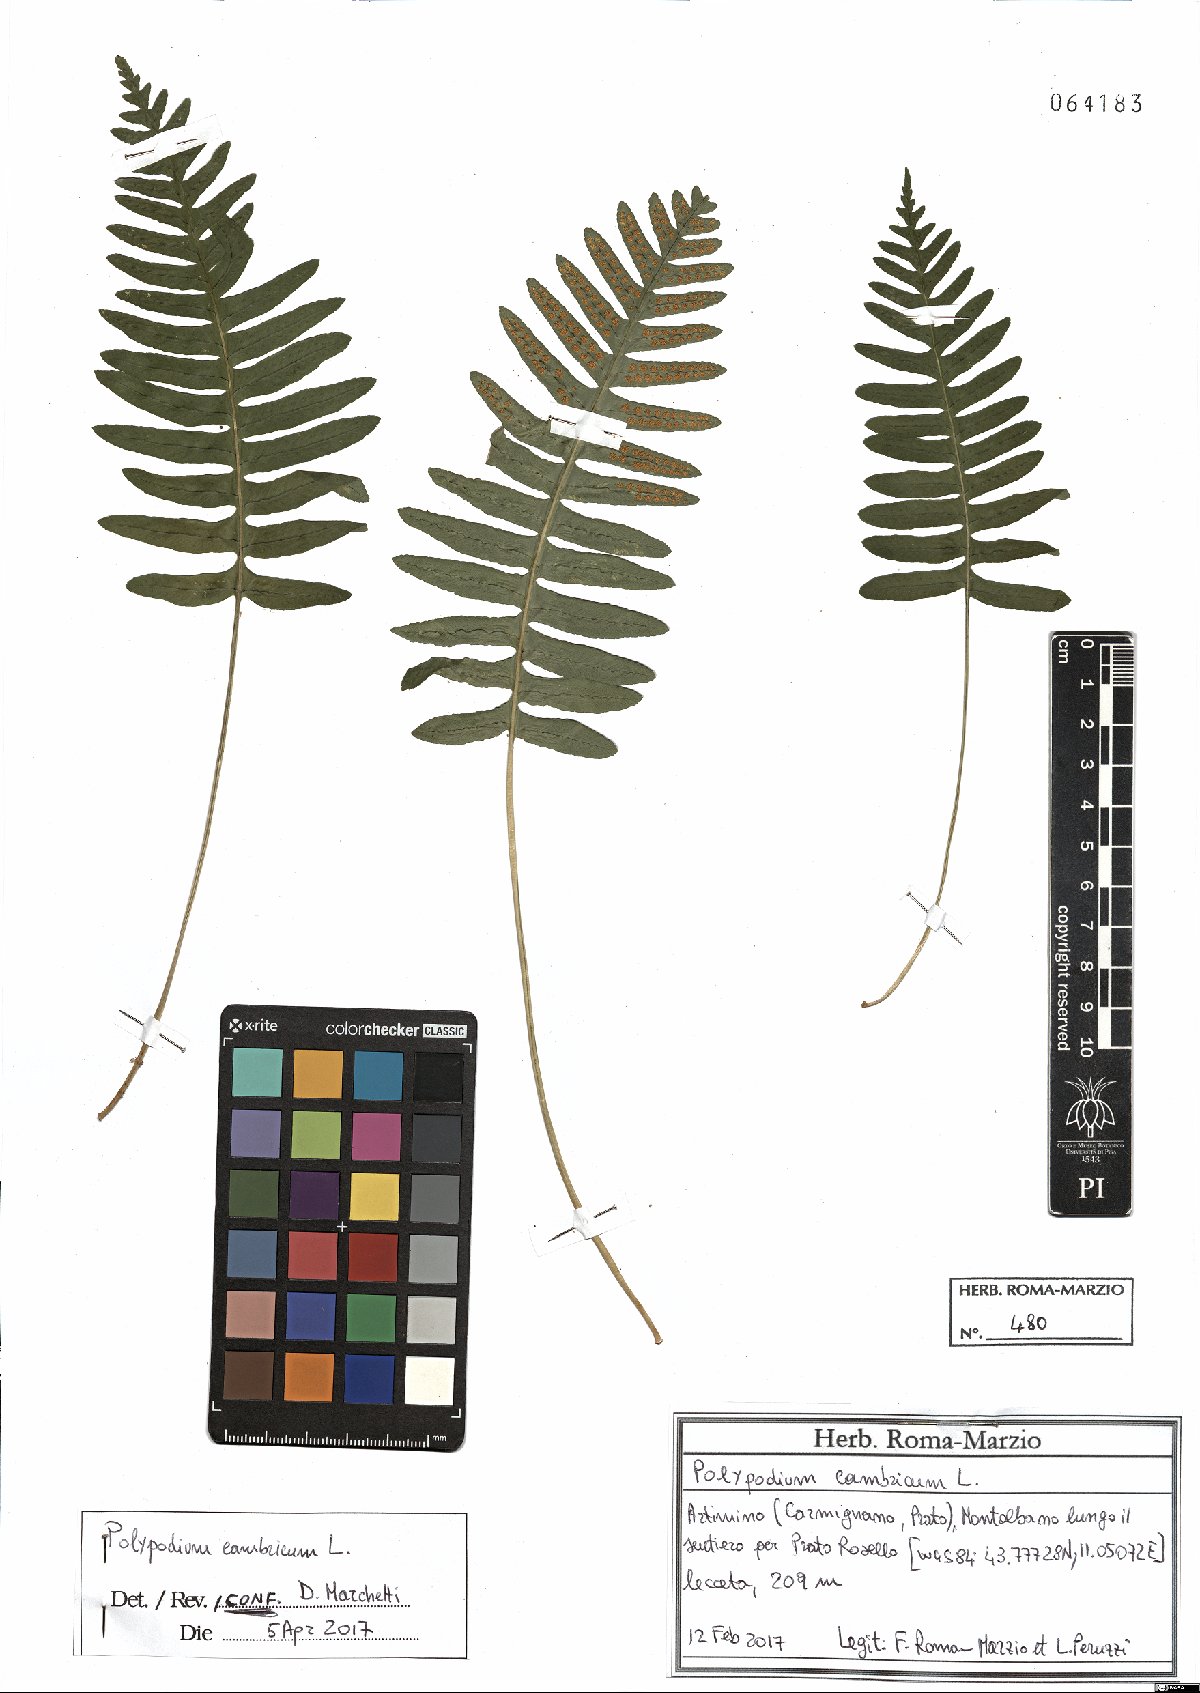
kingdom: Plantae
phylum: Tracheophyta
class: Polypodiopsida
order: Polypodiales
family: Polypodiaceae
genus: Polypodium
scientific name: Polypodium cambricum
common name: Southern polypody
